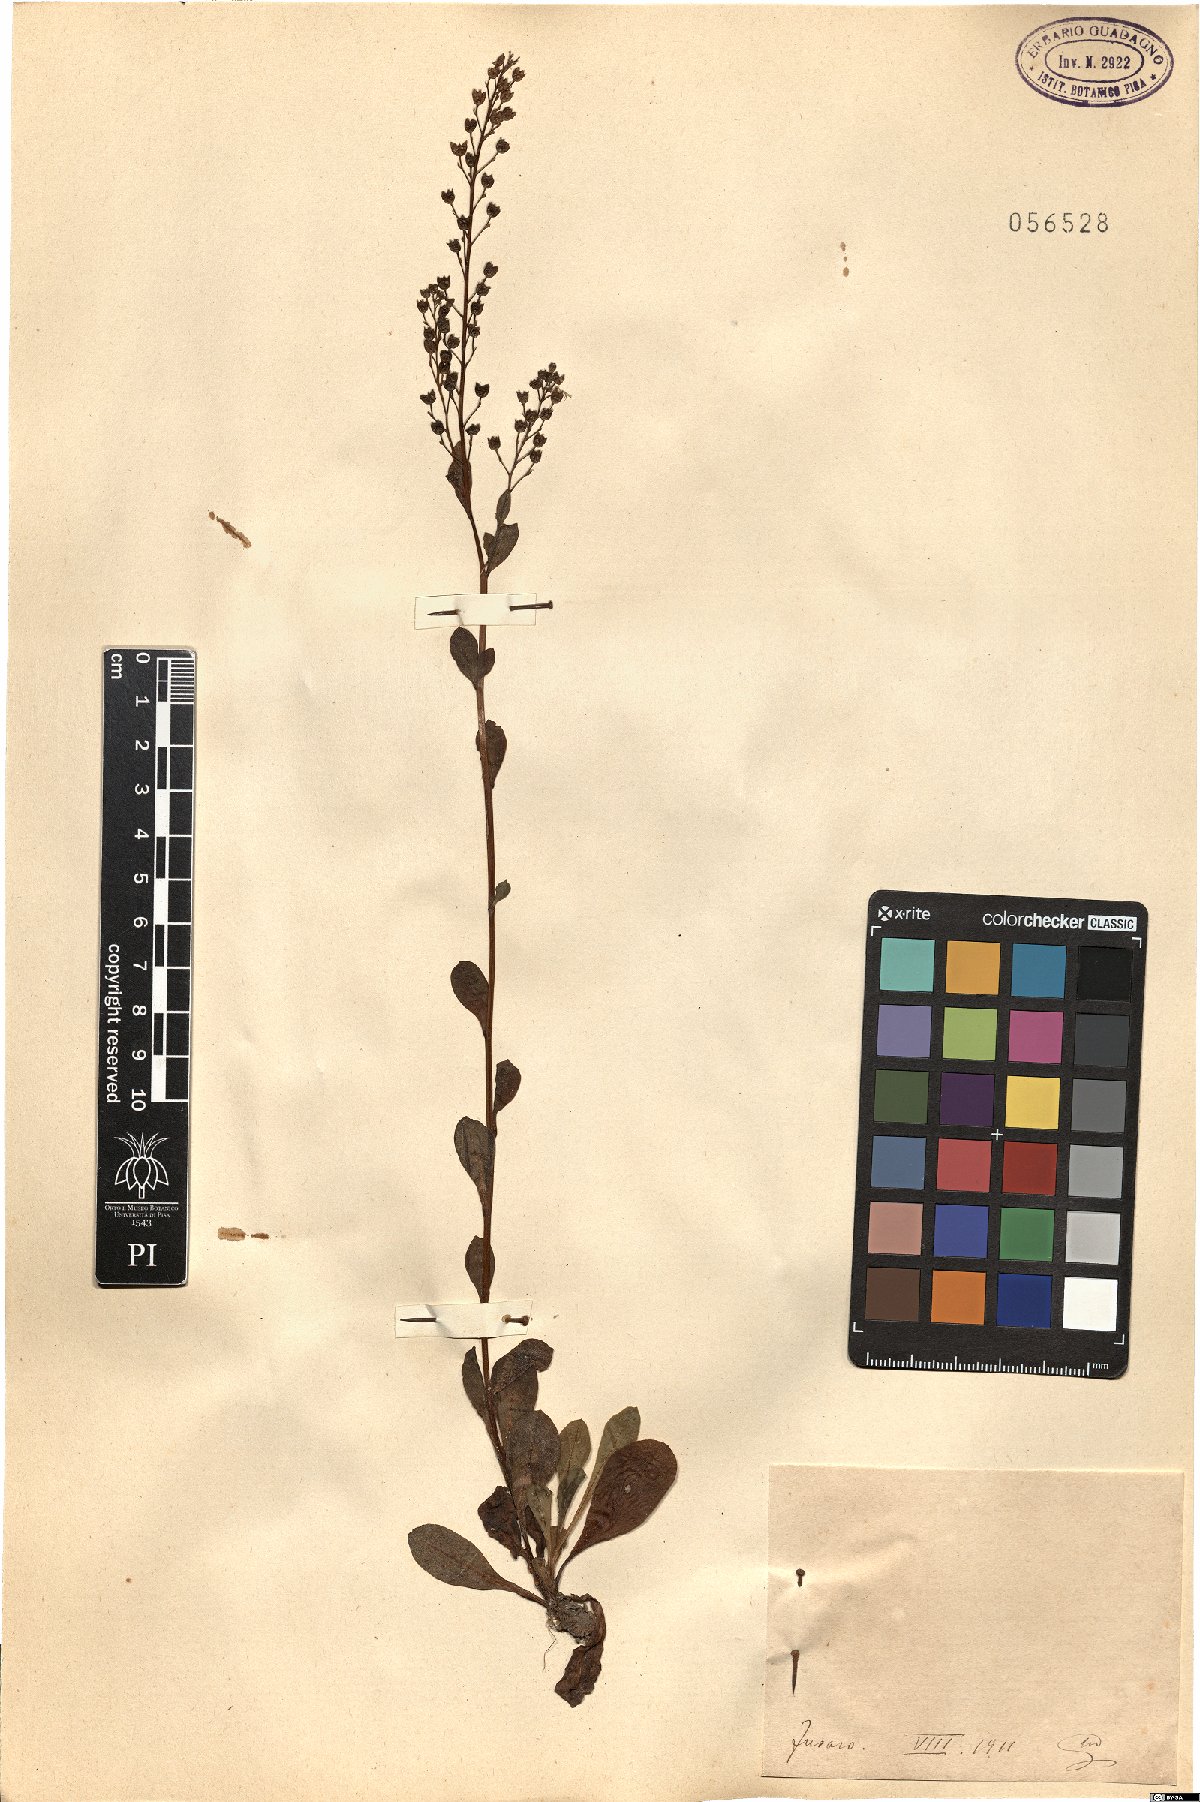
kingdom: Plantae
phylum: Tracheophyta
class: Magnoliopsida
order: Ericales
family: Primulaceae
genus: Samolus
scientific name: Samolus
